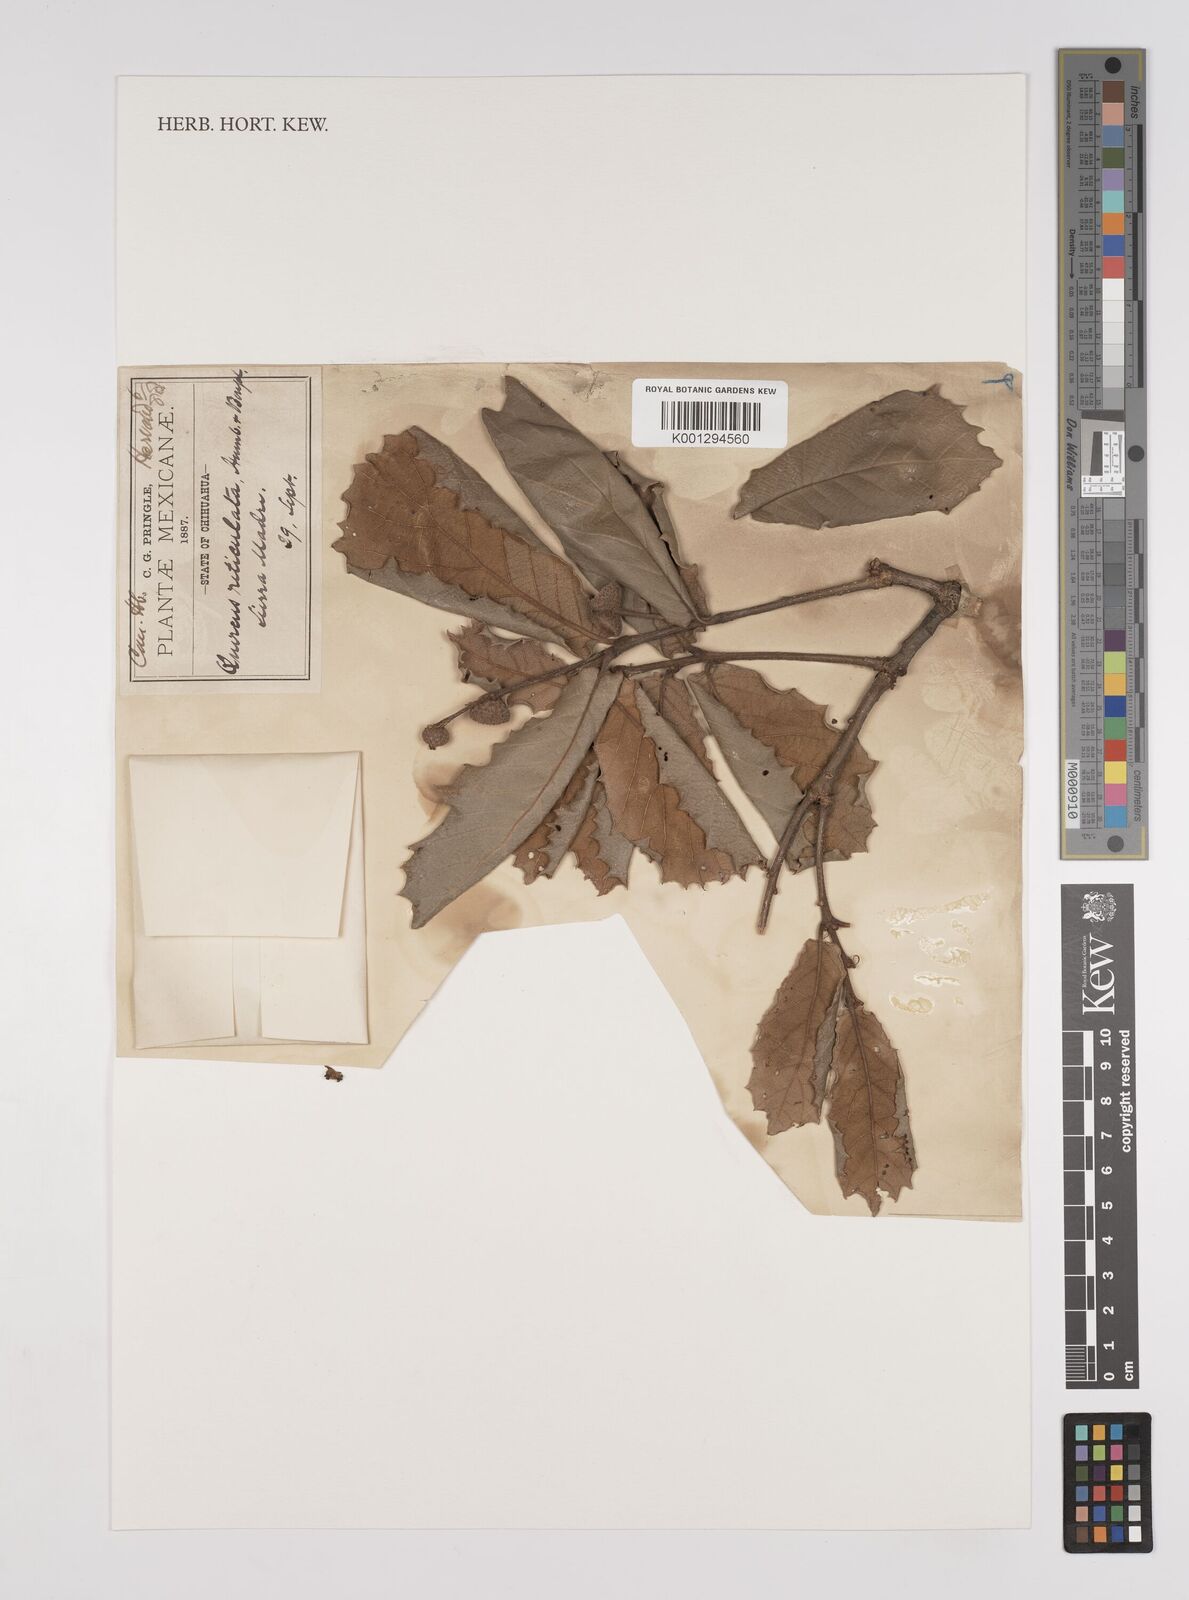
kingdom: Plantae
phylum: Tracheophyta
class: Magnoliopsida
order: Fagales
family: Fagaceae
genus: Quercus
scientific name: Quercus rugosa
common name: Netleaf oak
